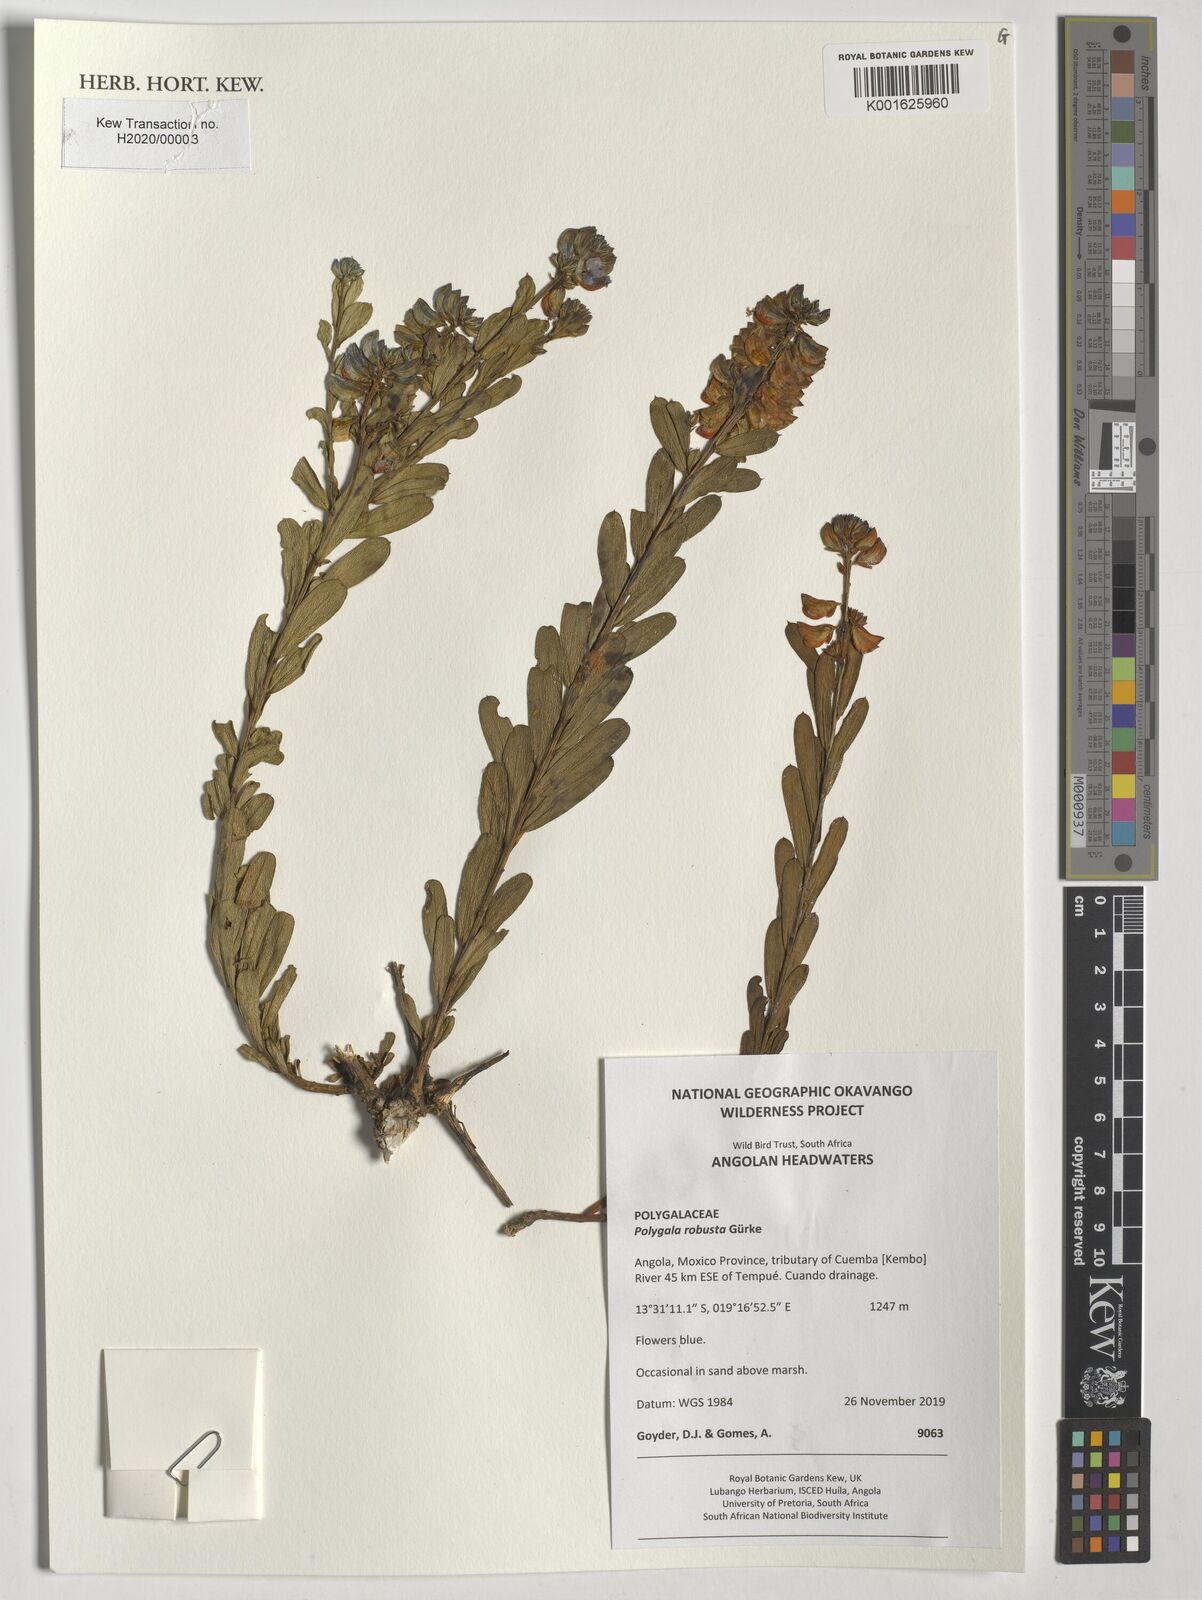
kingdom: Plantae
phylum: Tracheophyta
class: Magnoliopsida
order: Fabales
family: Polygalaceae
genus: Polygala
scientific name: Polygala robusta
